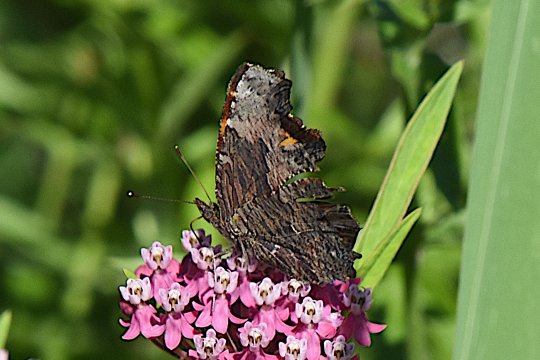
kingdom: Animalia
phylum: Arthropoda
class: Insecta
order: Lepidoptera
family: Nymphalidae
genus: Polygonia
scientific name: Polygonia progne
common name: Gray Comma
